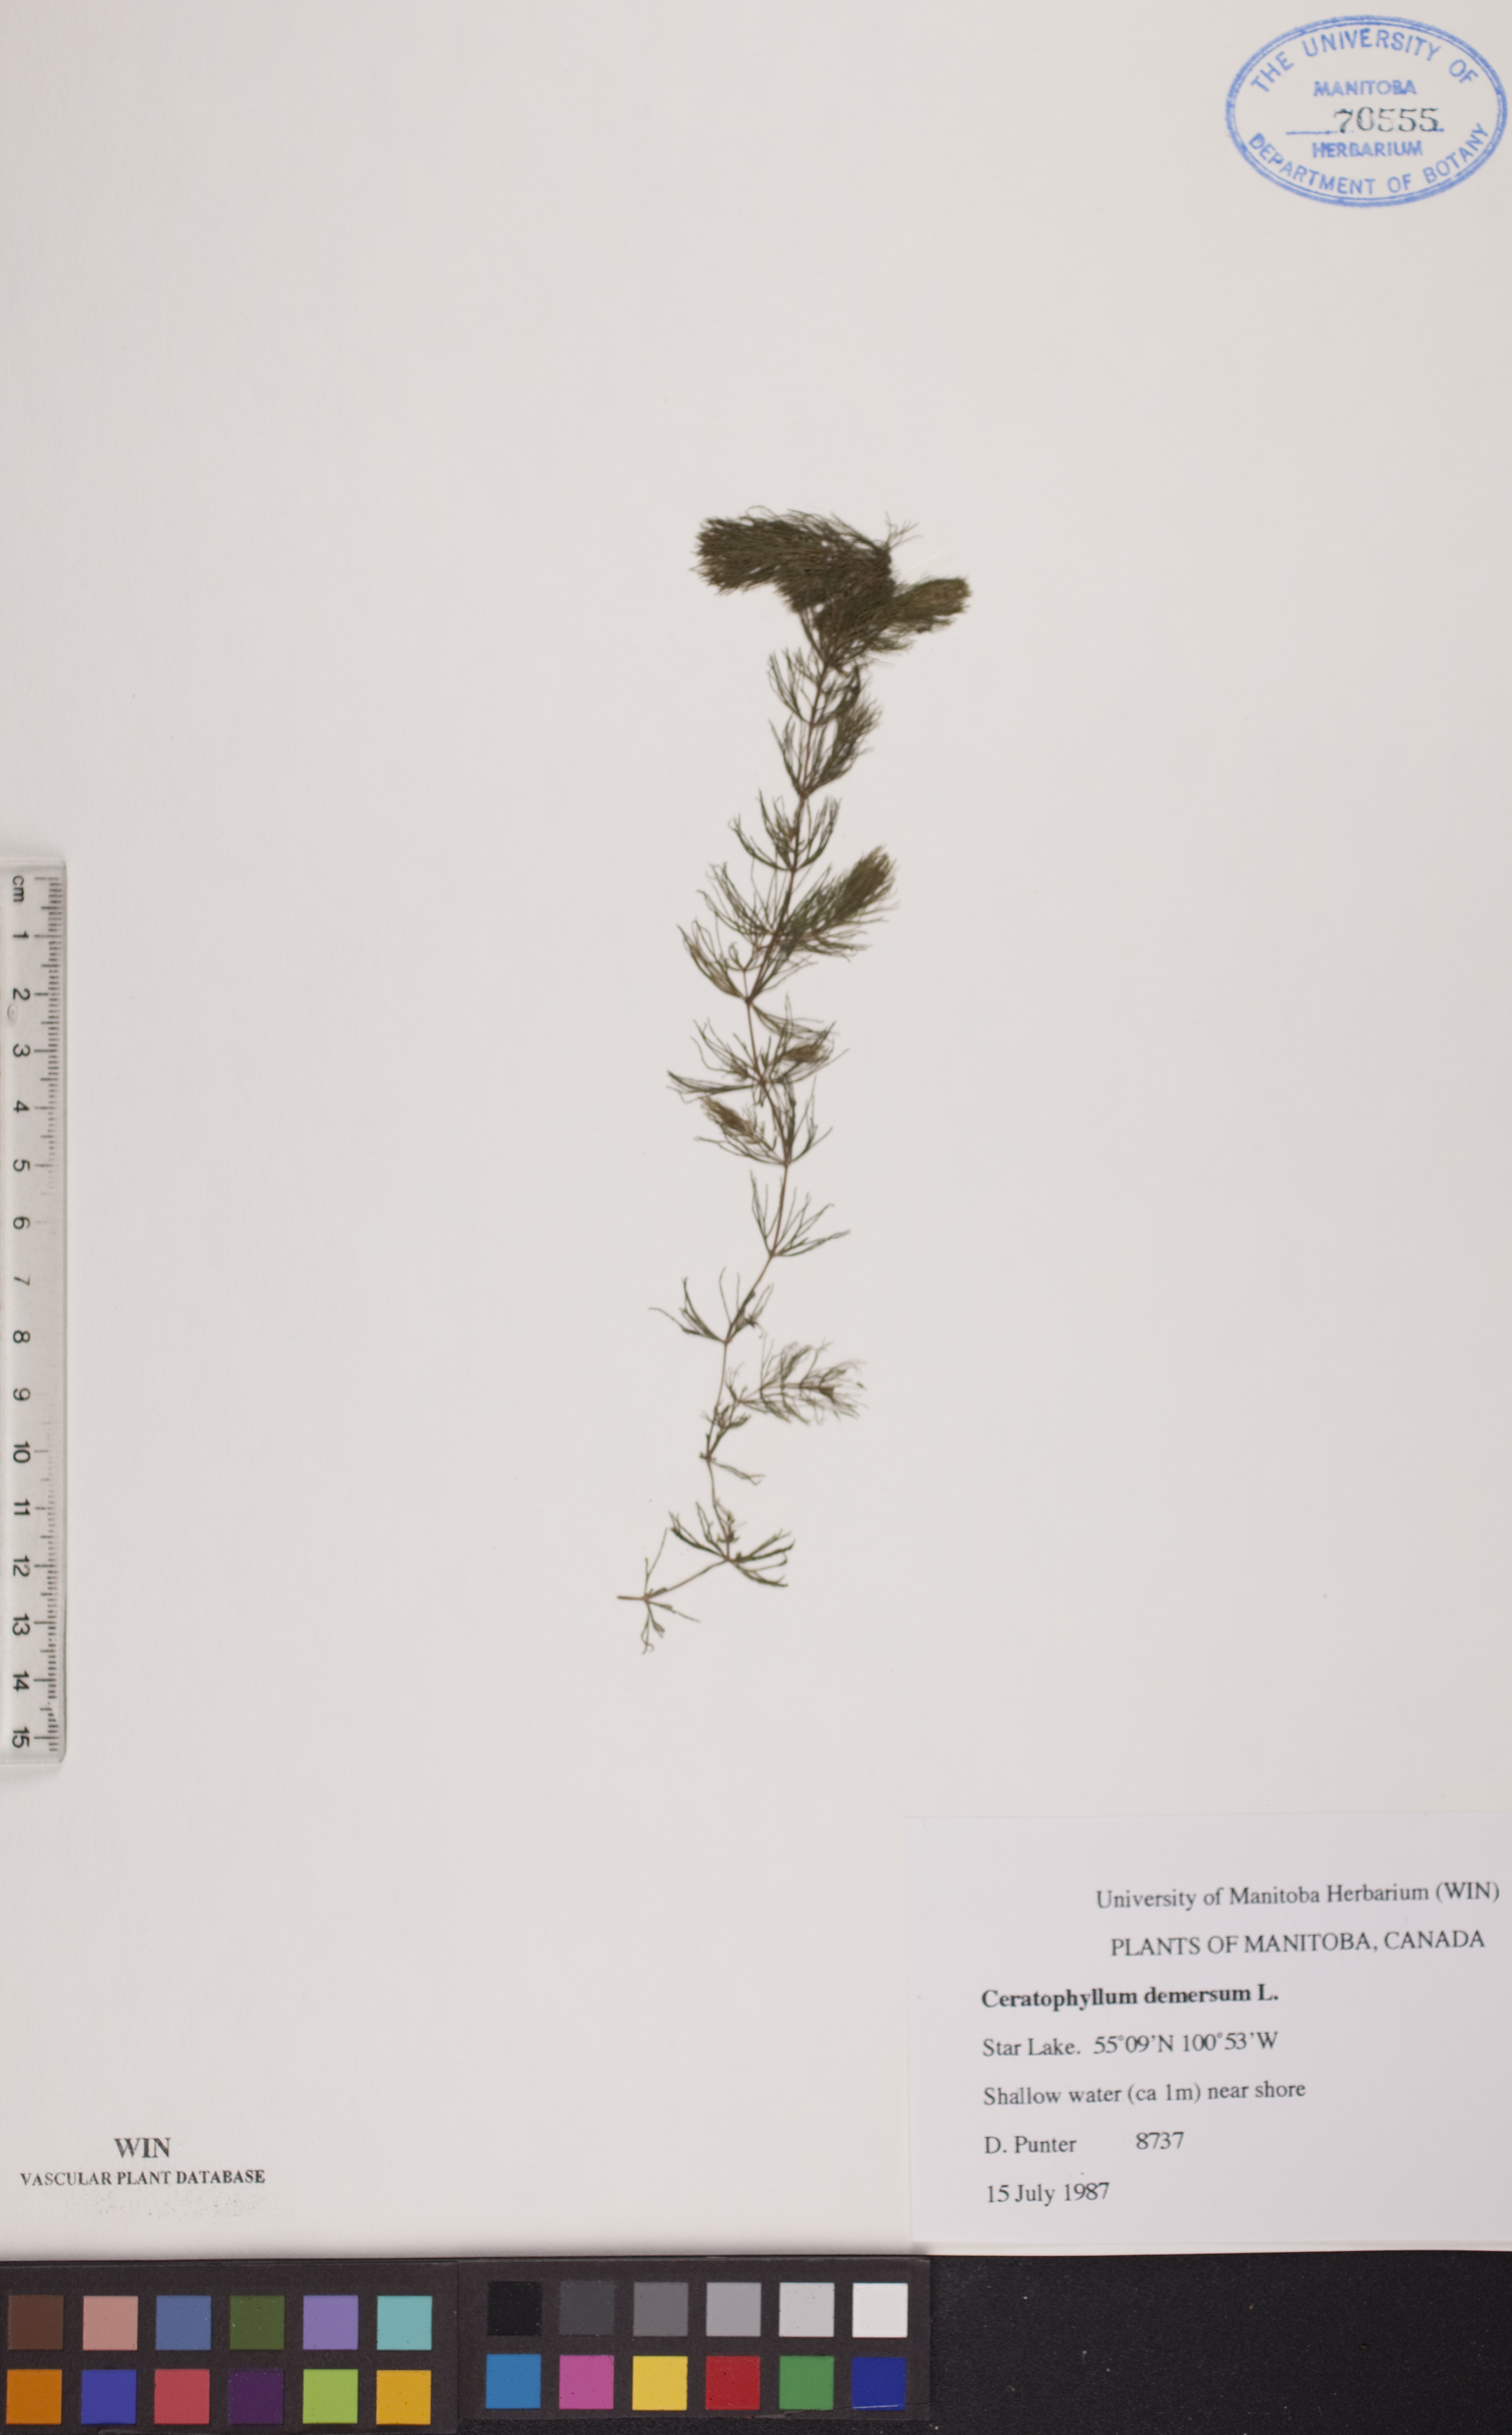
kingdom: Plantae
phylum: Tracheophyta
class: Magnoliopsida
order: Ceratophyllales
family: Ceratophyllaceae
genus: Ceratophyllum
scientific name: Ceratophyllum demersum
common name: Rigid hornwort
